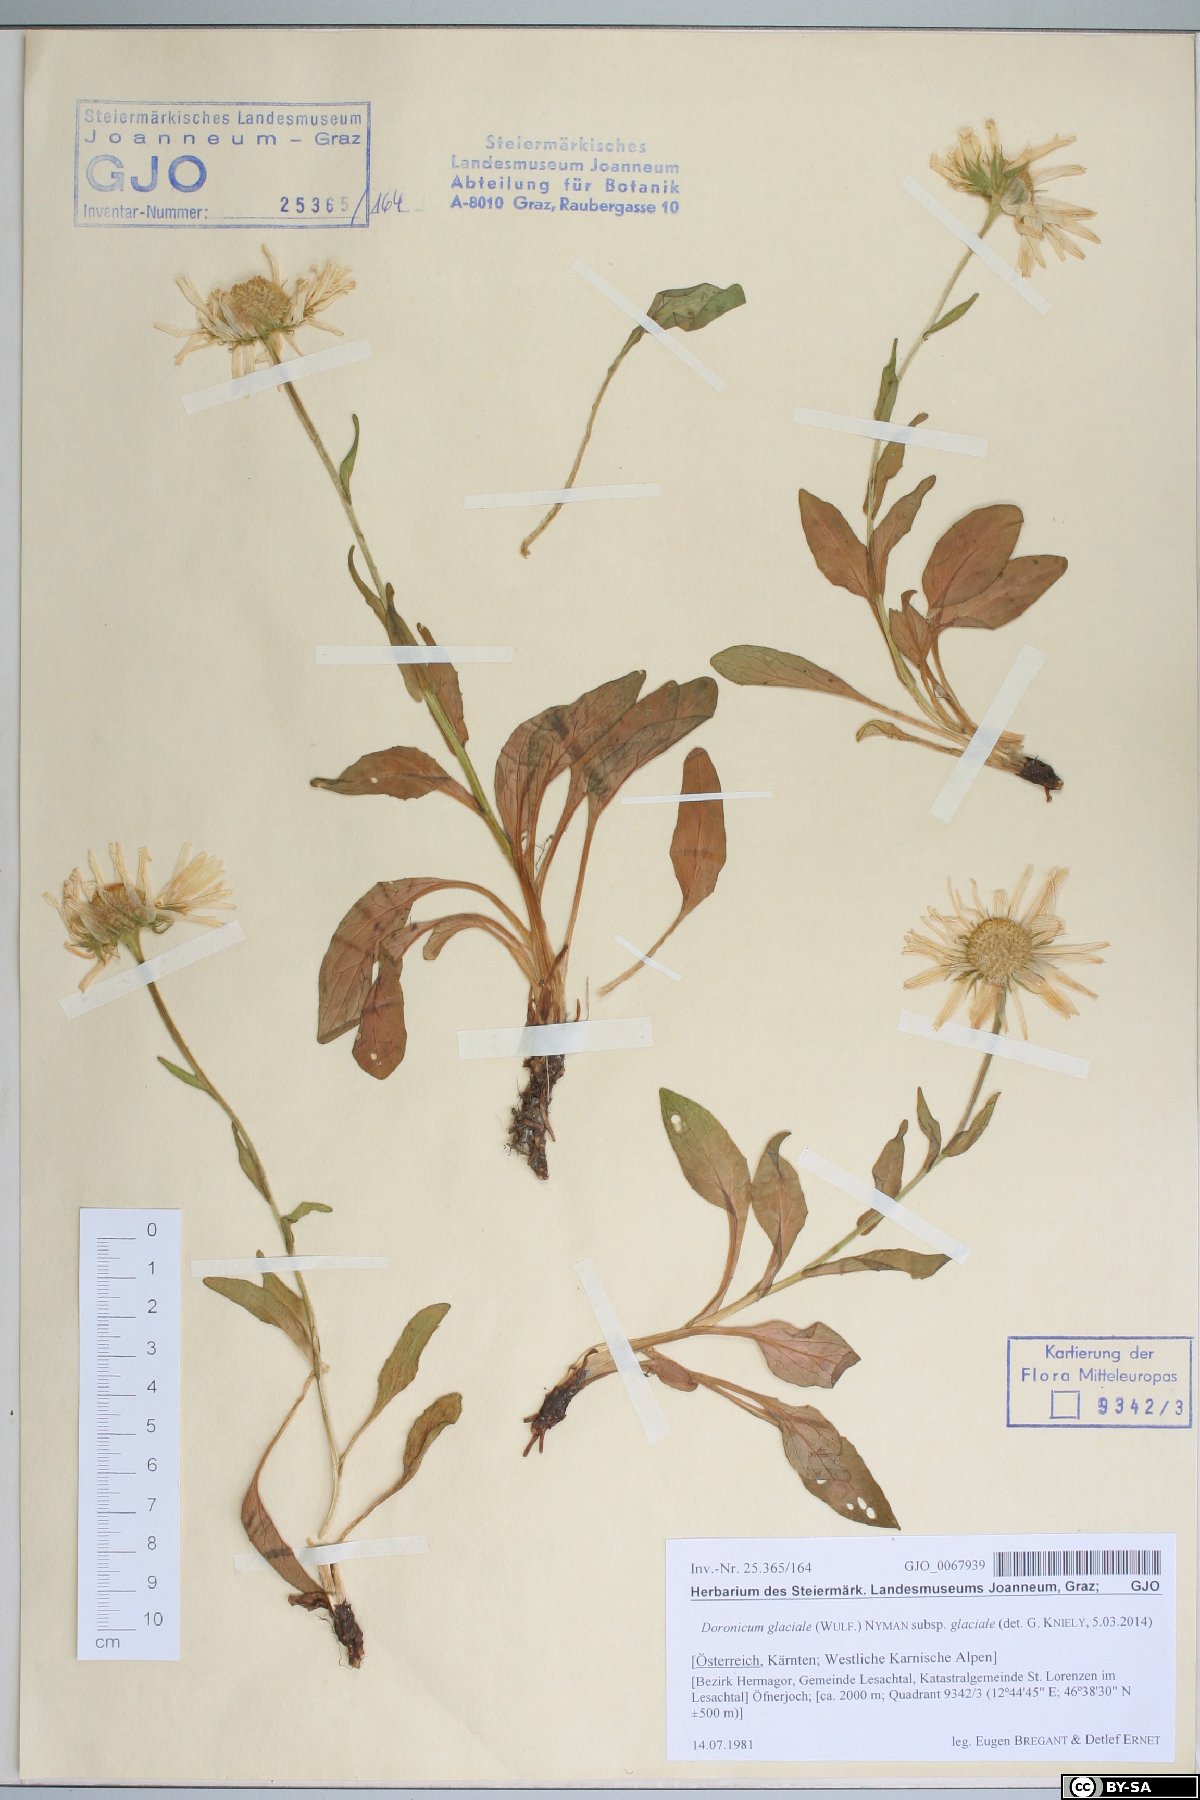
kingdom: Plantae
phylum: Tracheophyta
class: Magnoliopsida
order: Asterales
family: Asteraceae
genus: Doronicum
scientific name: Doronicum glaciale
